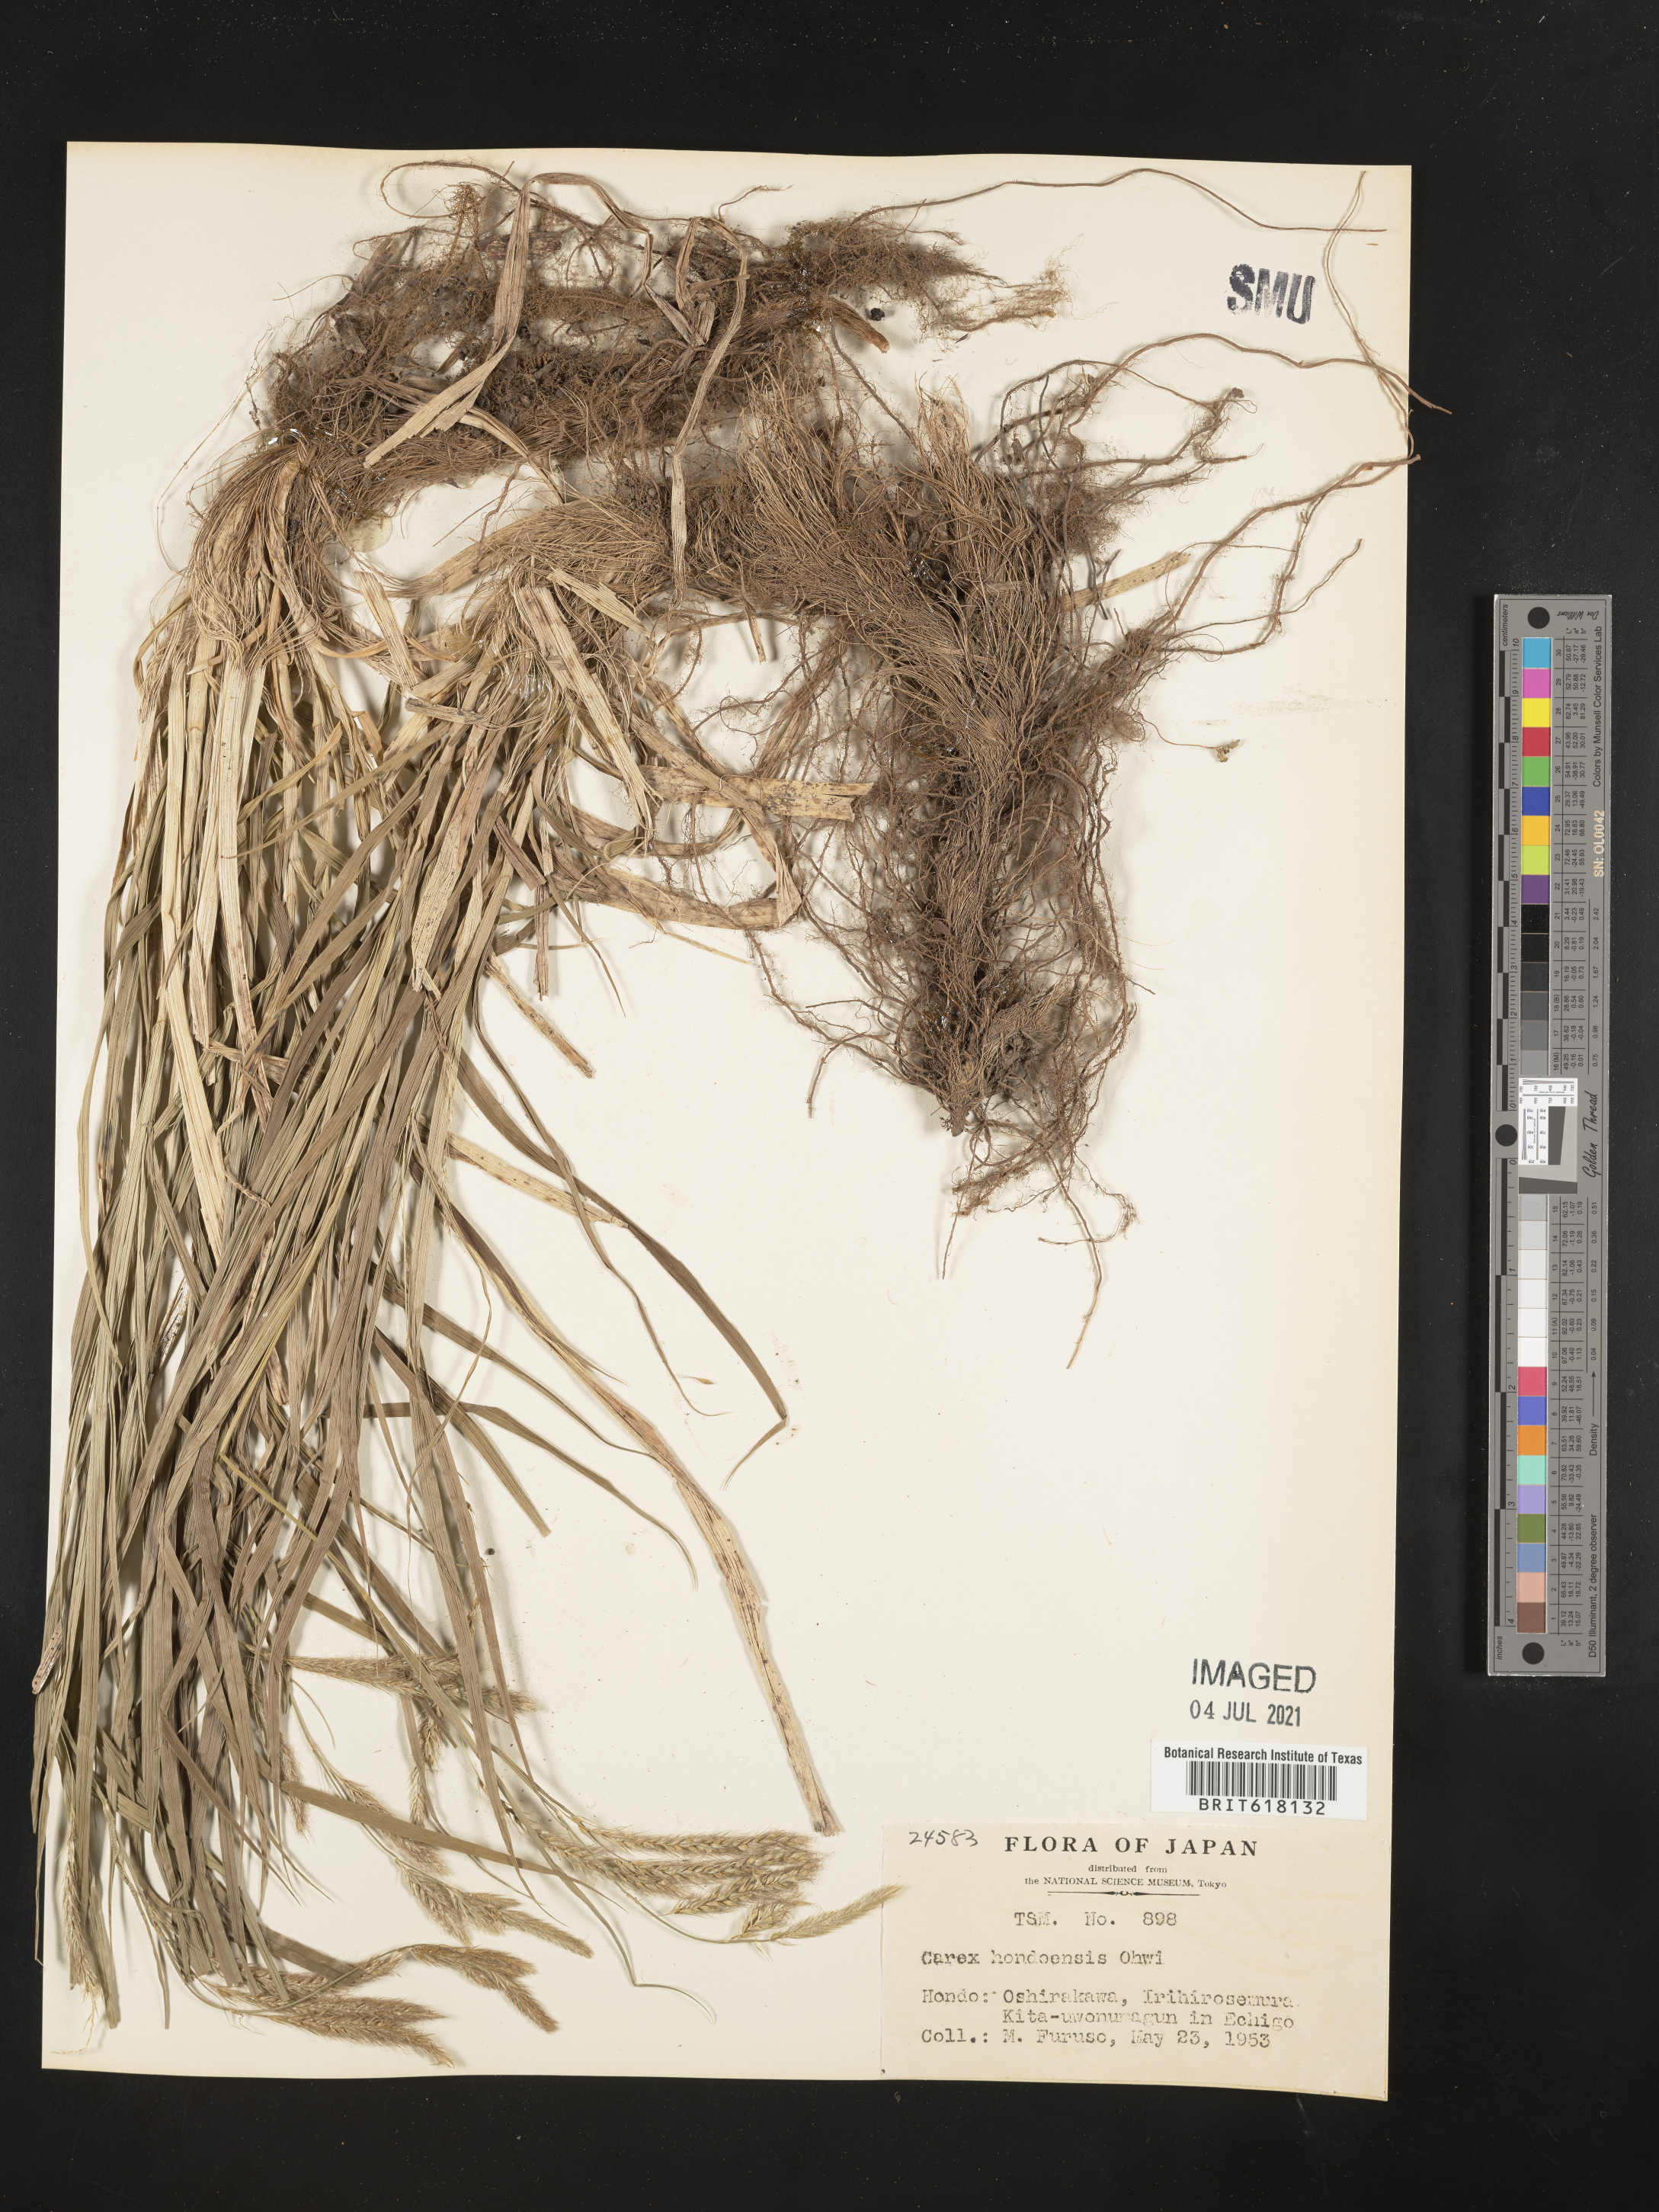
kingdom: Plantae
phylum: Tracheophyta
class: Liliopsida
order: Poales
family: Cyperaceae
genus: Carex
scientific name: Carex hondoensis
